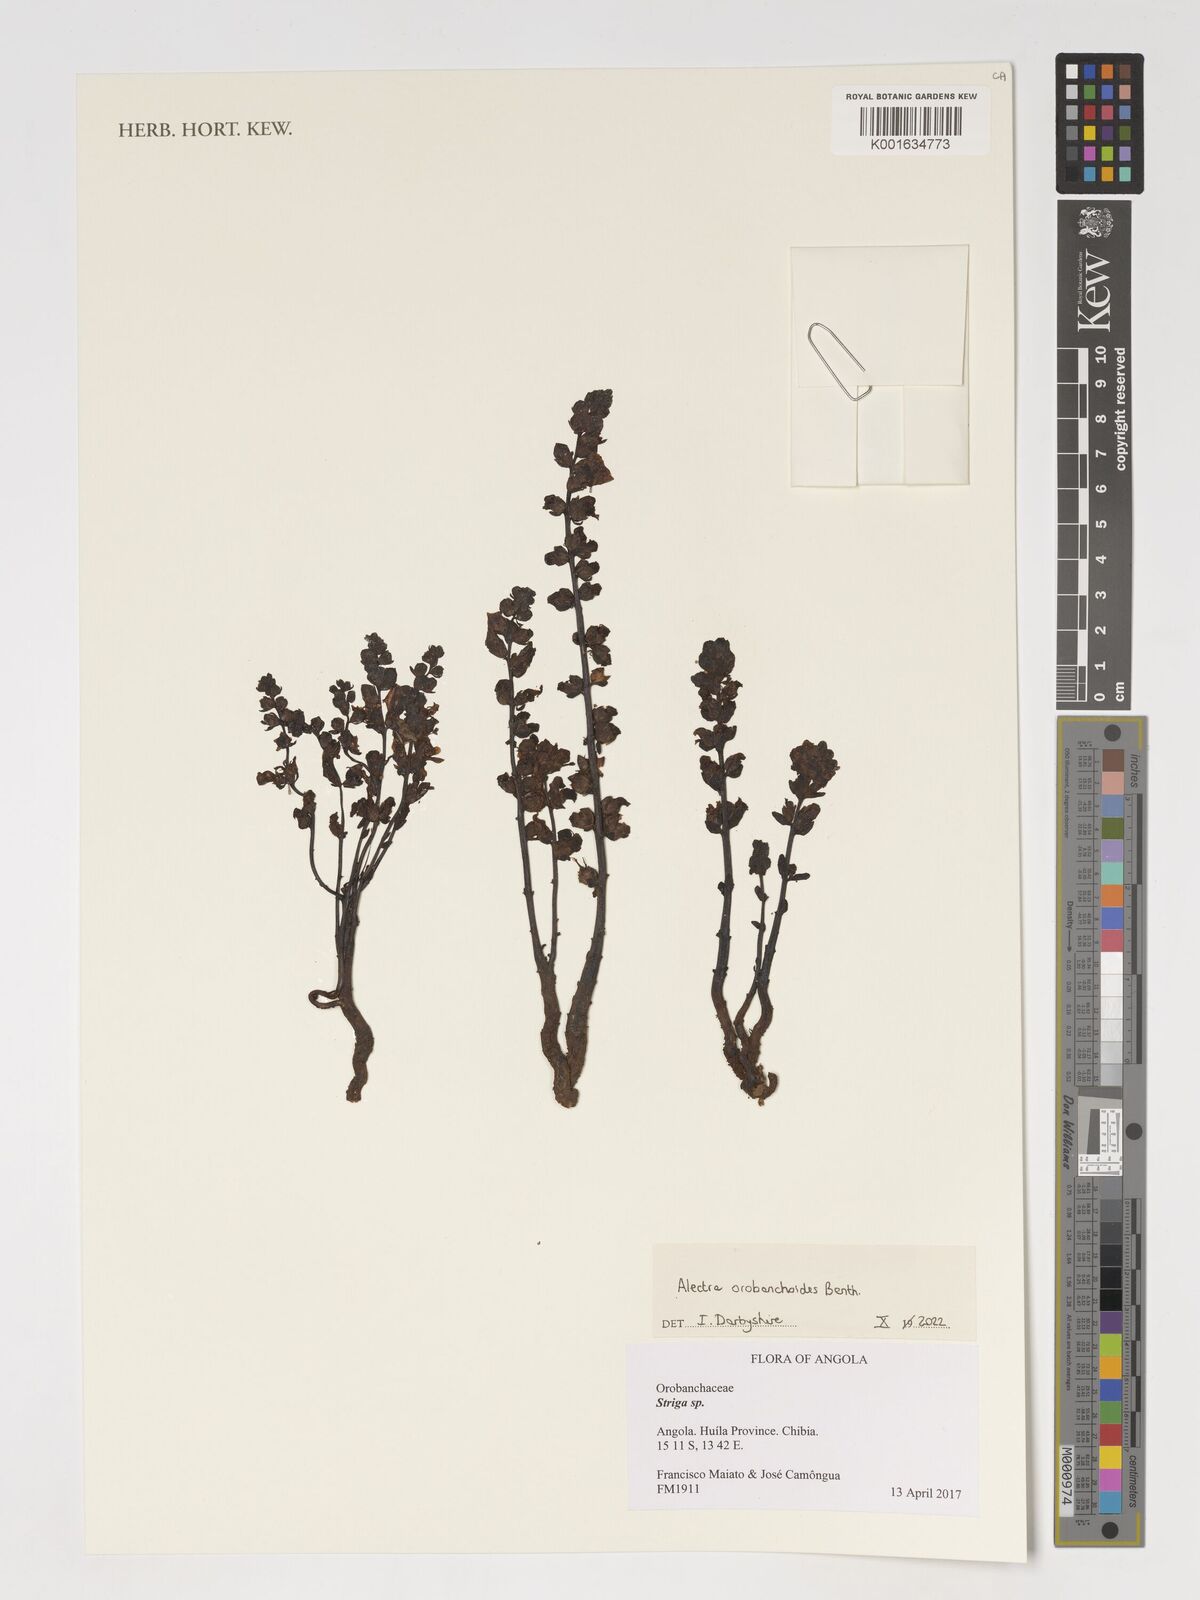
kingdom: Plantae
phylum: Tracheophyta
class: Magnoliopsida
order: Lamiales
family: Orobanchaceae
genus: Alectra
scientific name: Alectra orobanchoides
